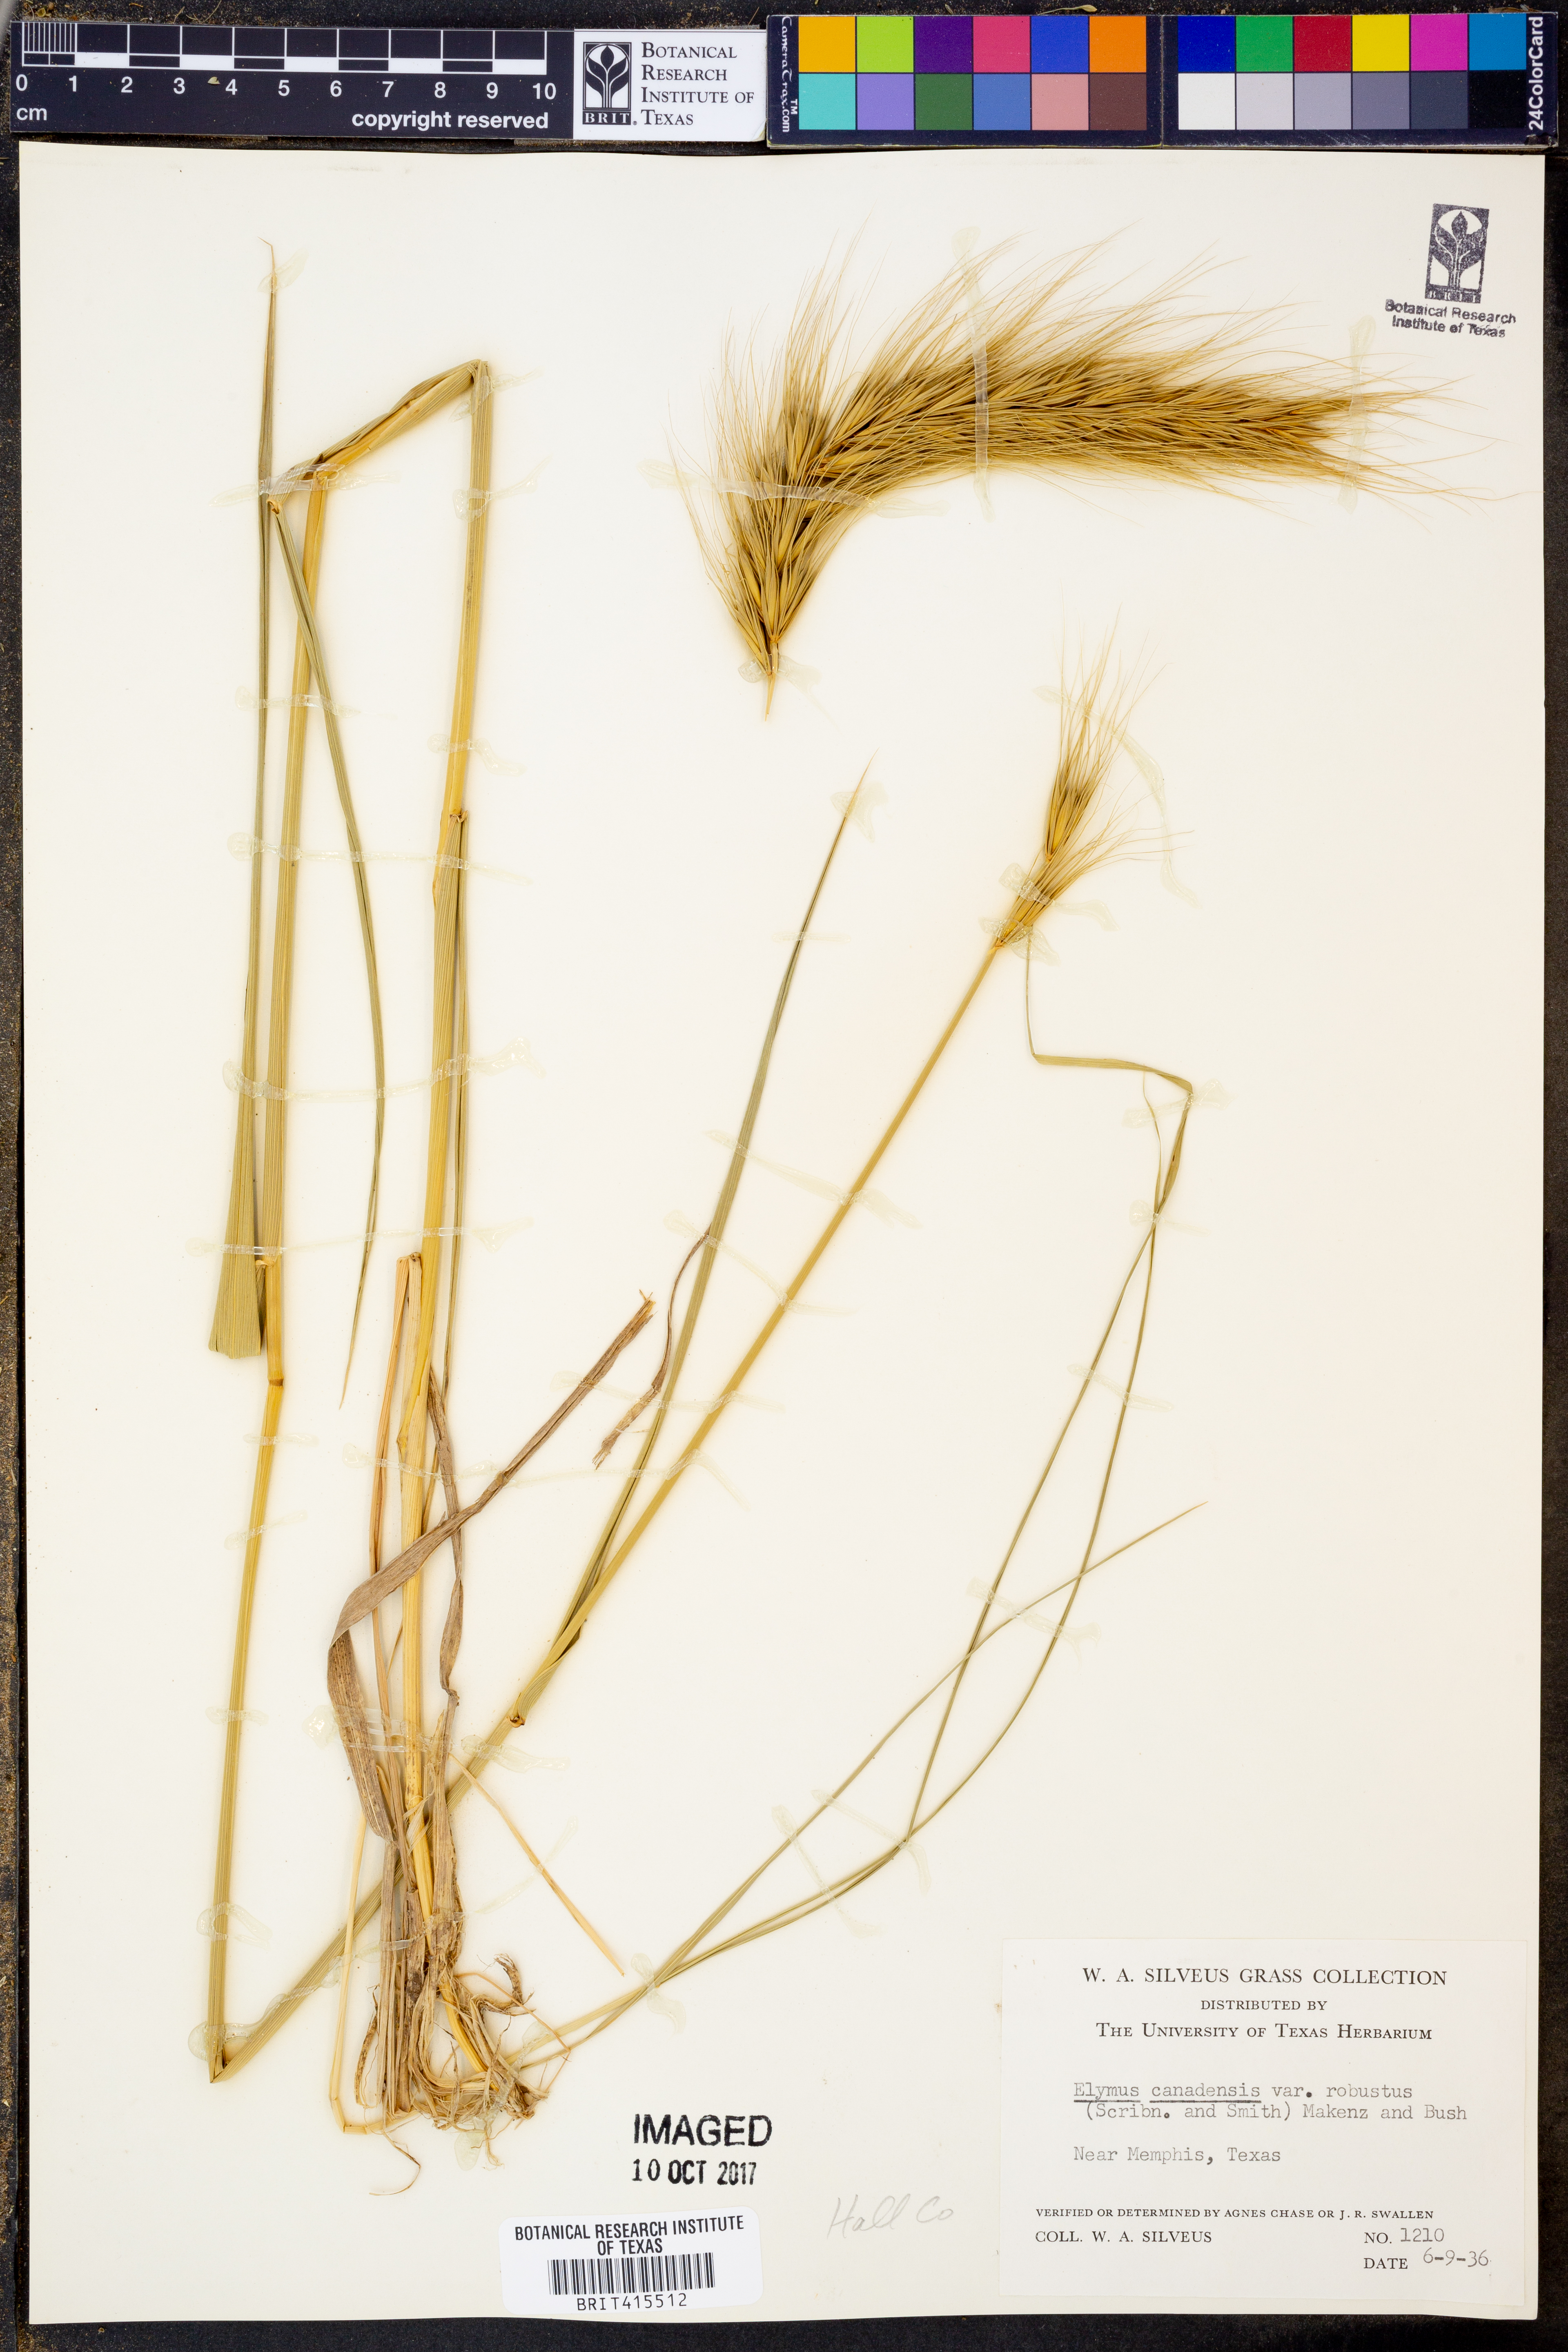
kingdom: Plantae
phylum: Tracheophyta
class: Liliopsida
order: Poales
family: Poaceae
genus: Elymus
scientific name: Elymus canadensis
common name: Canada wild rye
